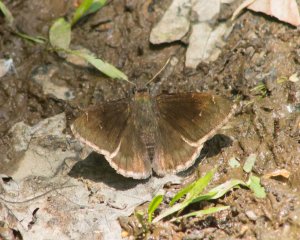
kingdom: Animalia
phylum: Arthropoda
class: Insecta
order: Lepidoptera
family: Hesperiidae
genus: Autochton
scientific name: Autochton
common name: Northern Cloudywing
